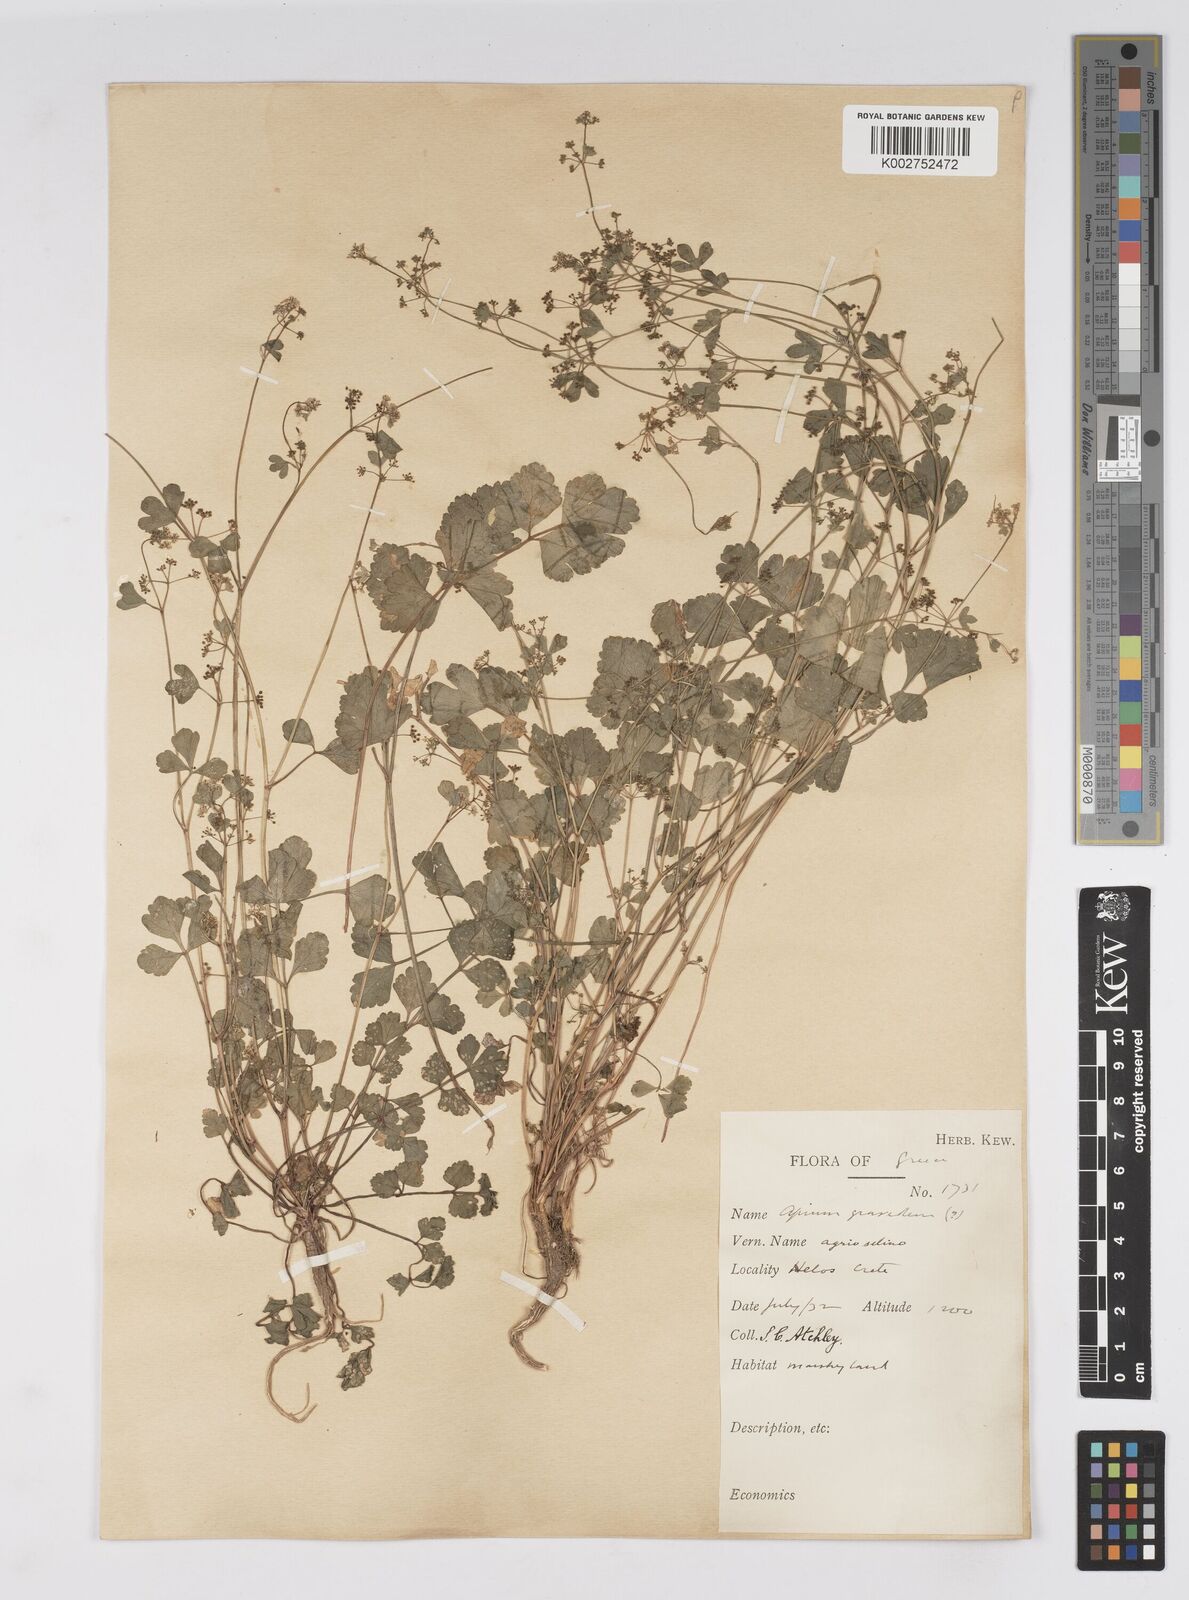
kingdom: Plantae
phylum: Tracheophyta
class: Magnoliopsida
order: Apiales
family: Apiaceae
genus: Apium
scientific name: Apium graveolens
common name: Wild celery
